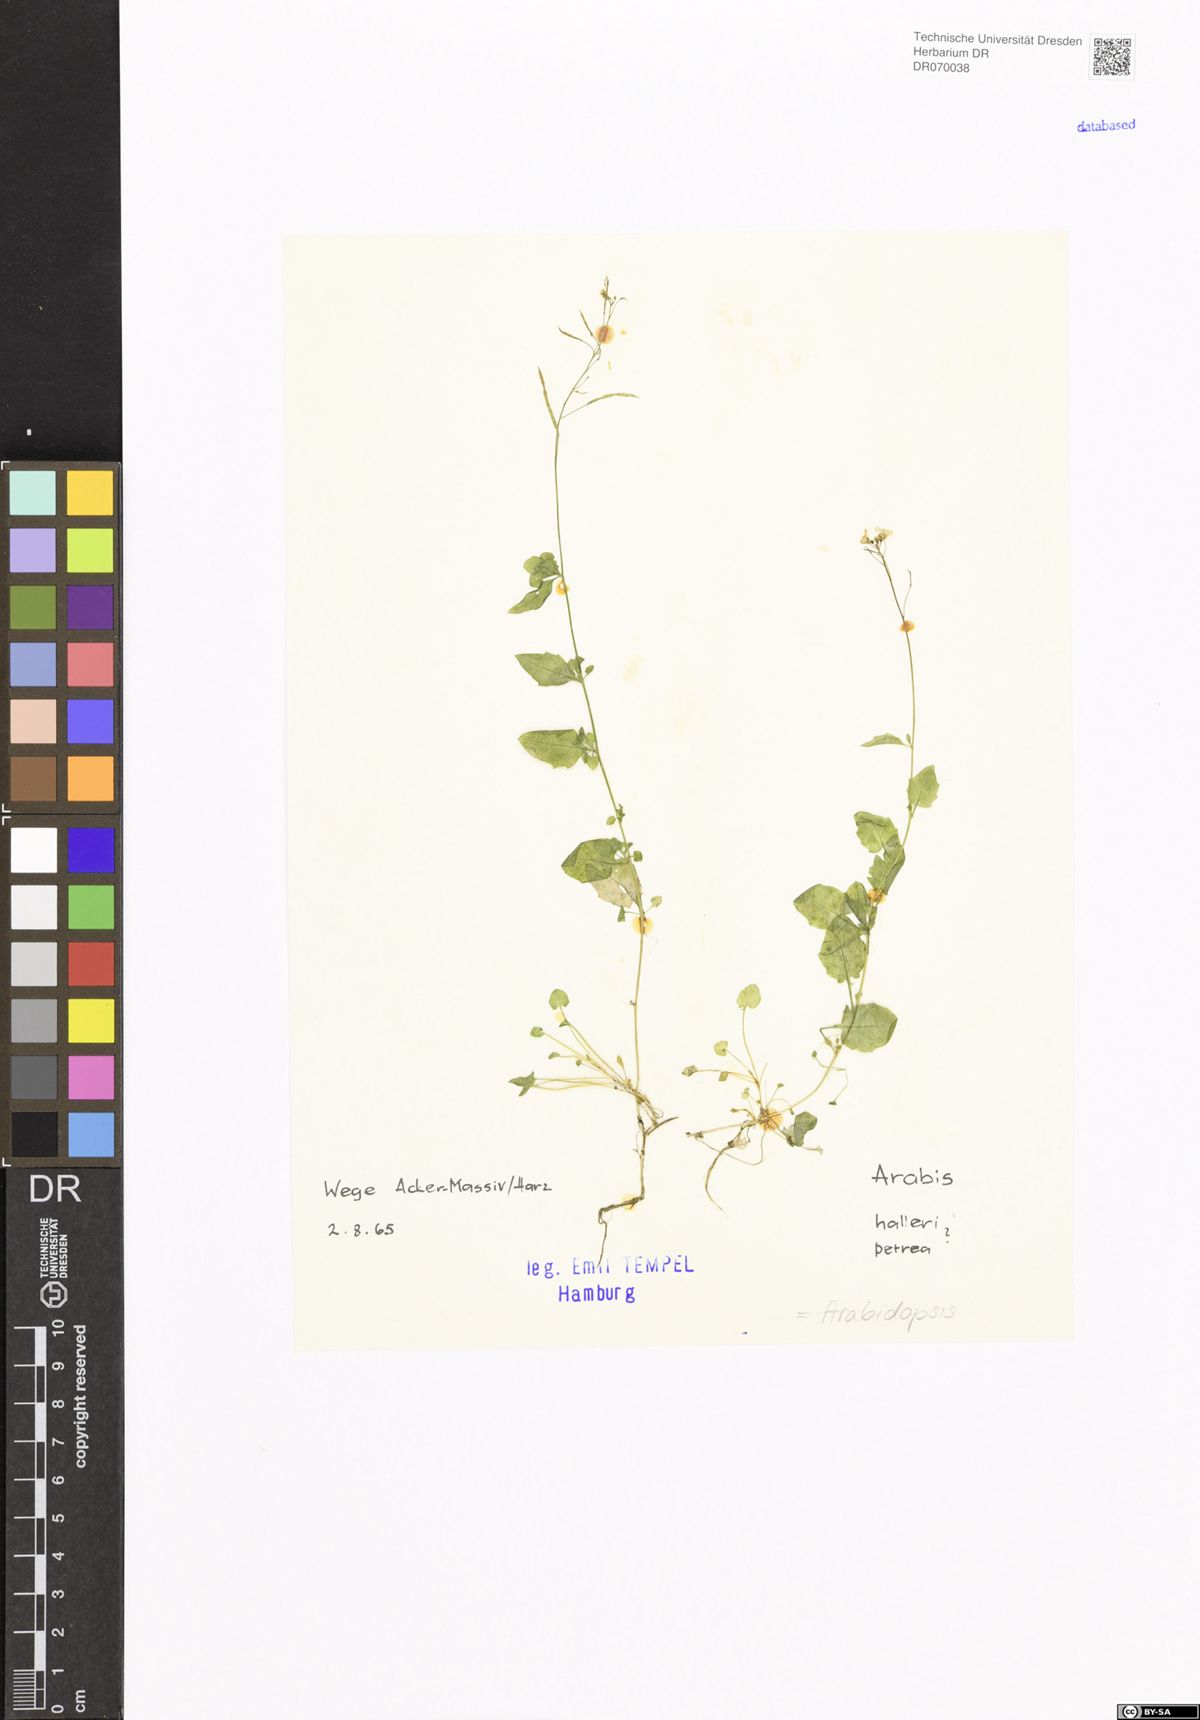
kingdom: Plantae
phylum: Tracheophyta
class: Magnoliopsida
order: Brassicales
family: Brassicaceae
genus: Arabidopsis
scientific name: Arabidopsis
